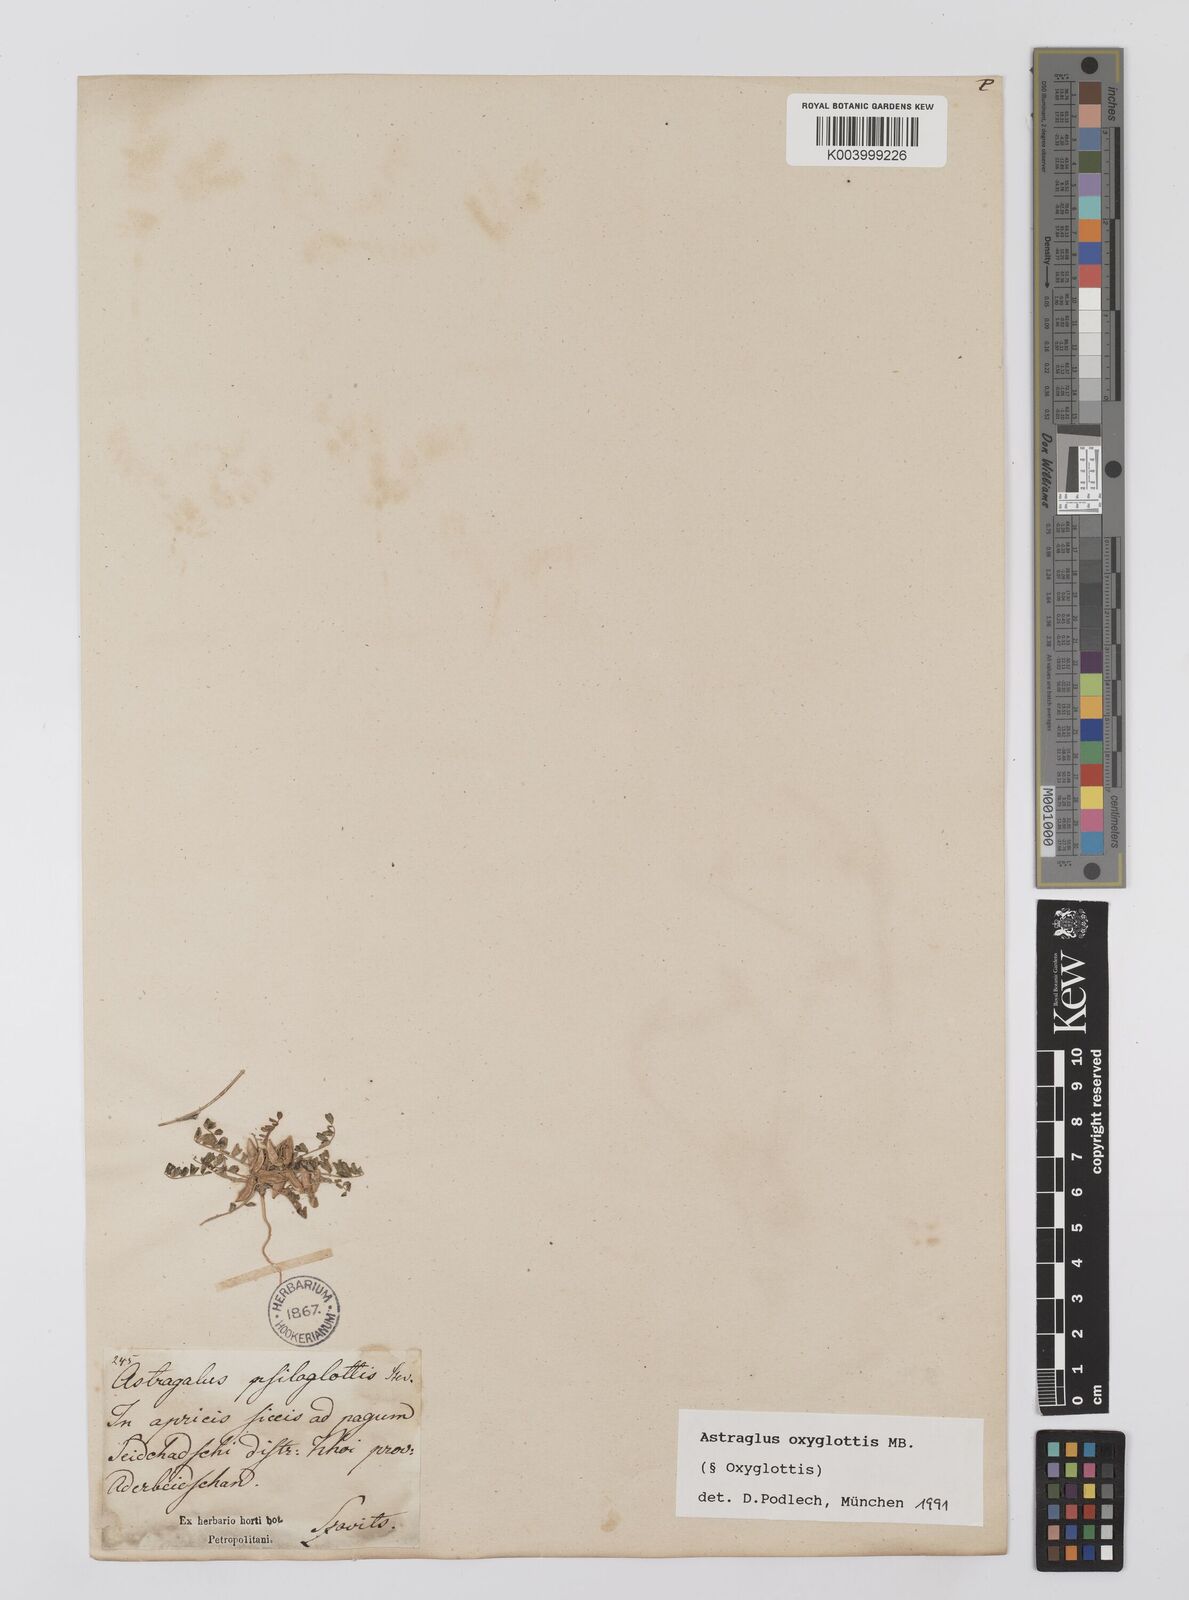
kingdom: Plantae
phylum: Tracheophyta
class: Magnoliopsida
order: Fabales
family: Fabaceae
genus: Astragalus
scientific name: Astragalus oxyglottis
